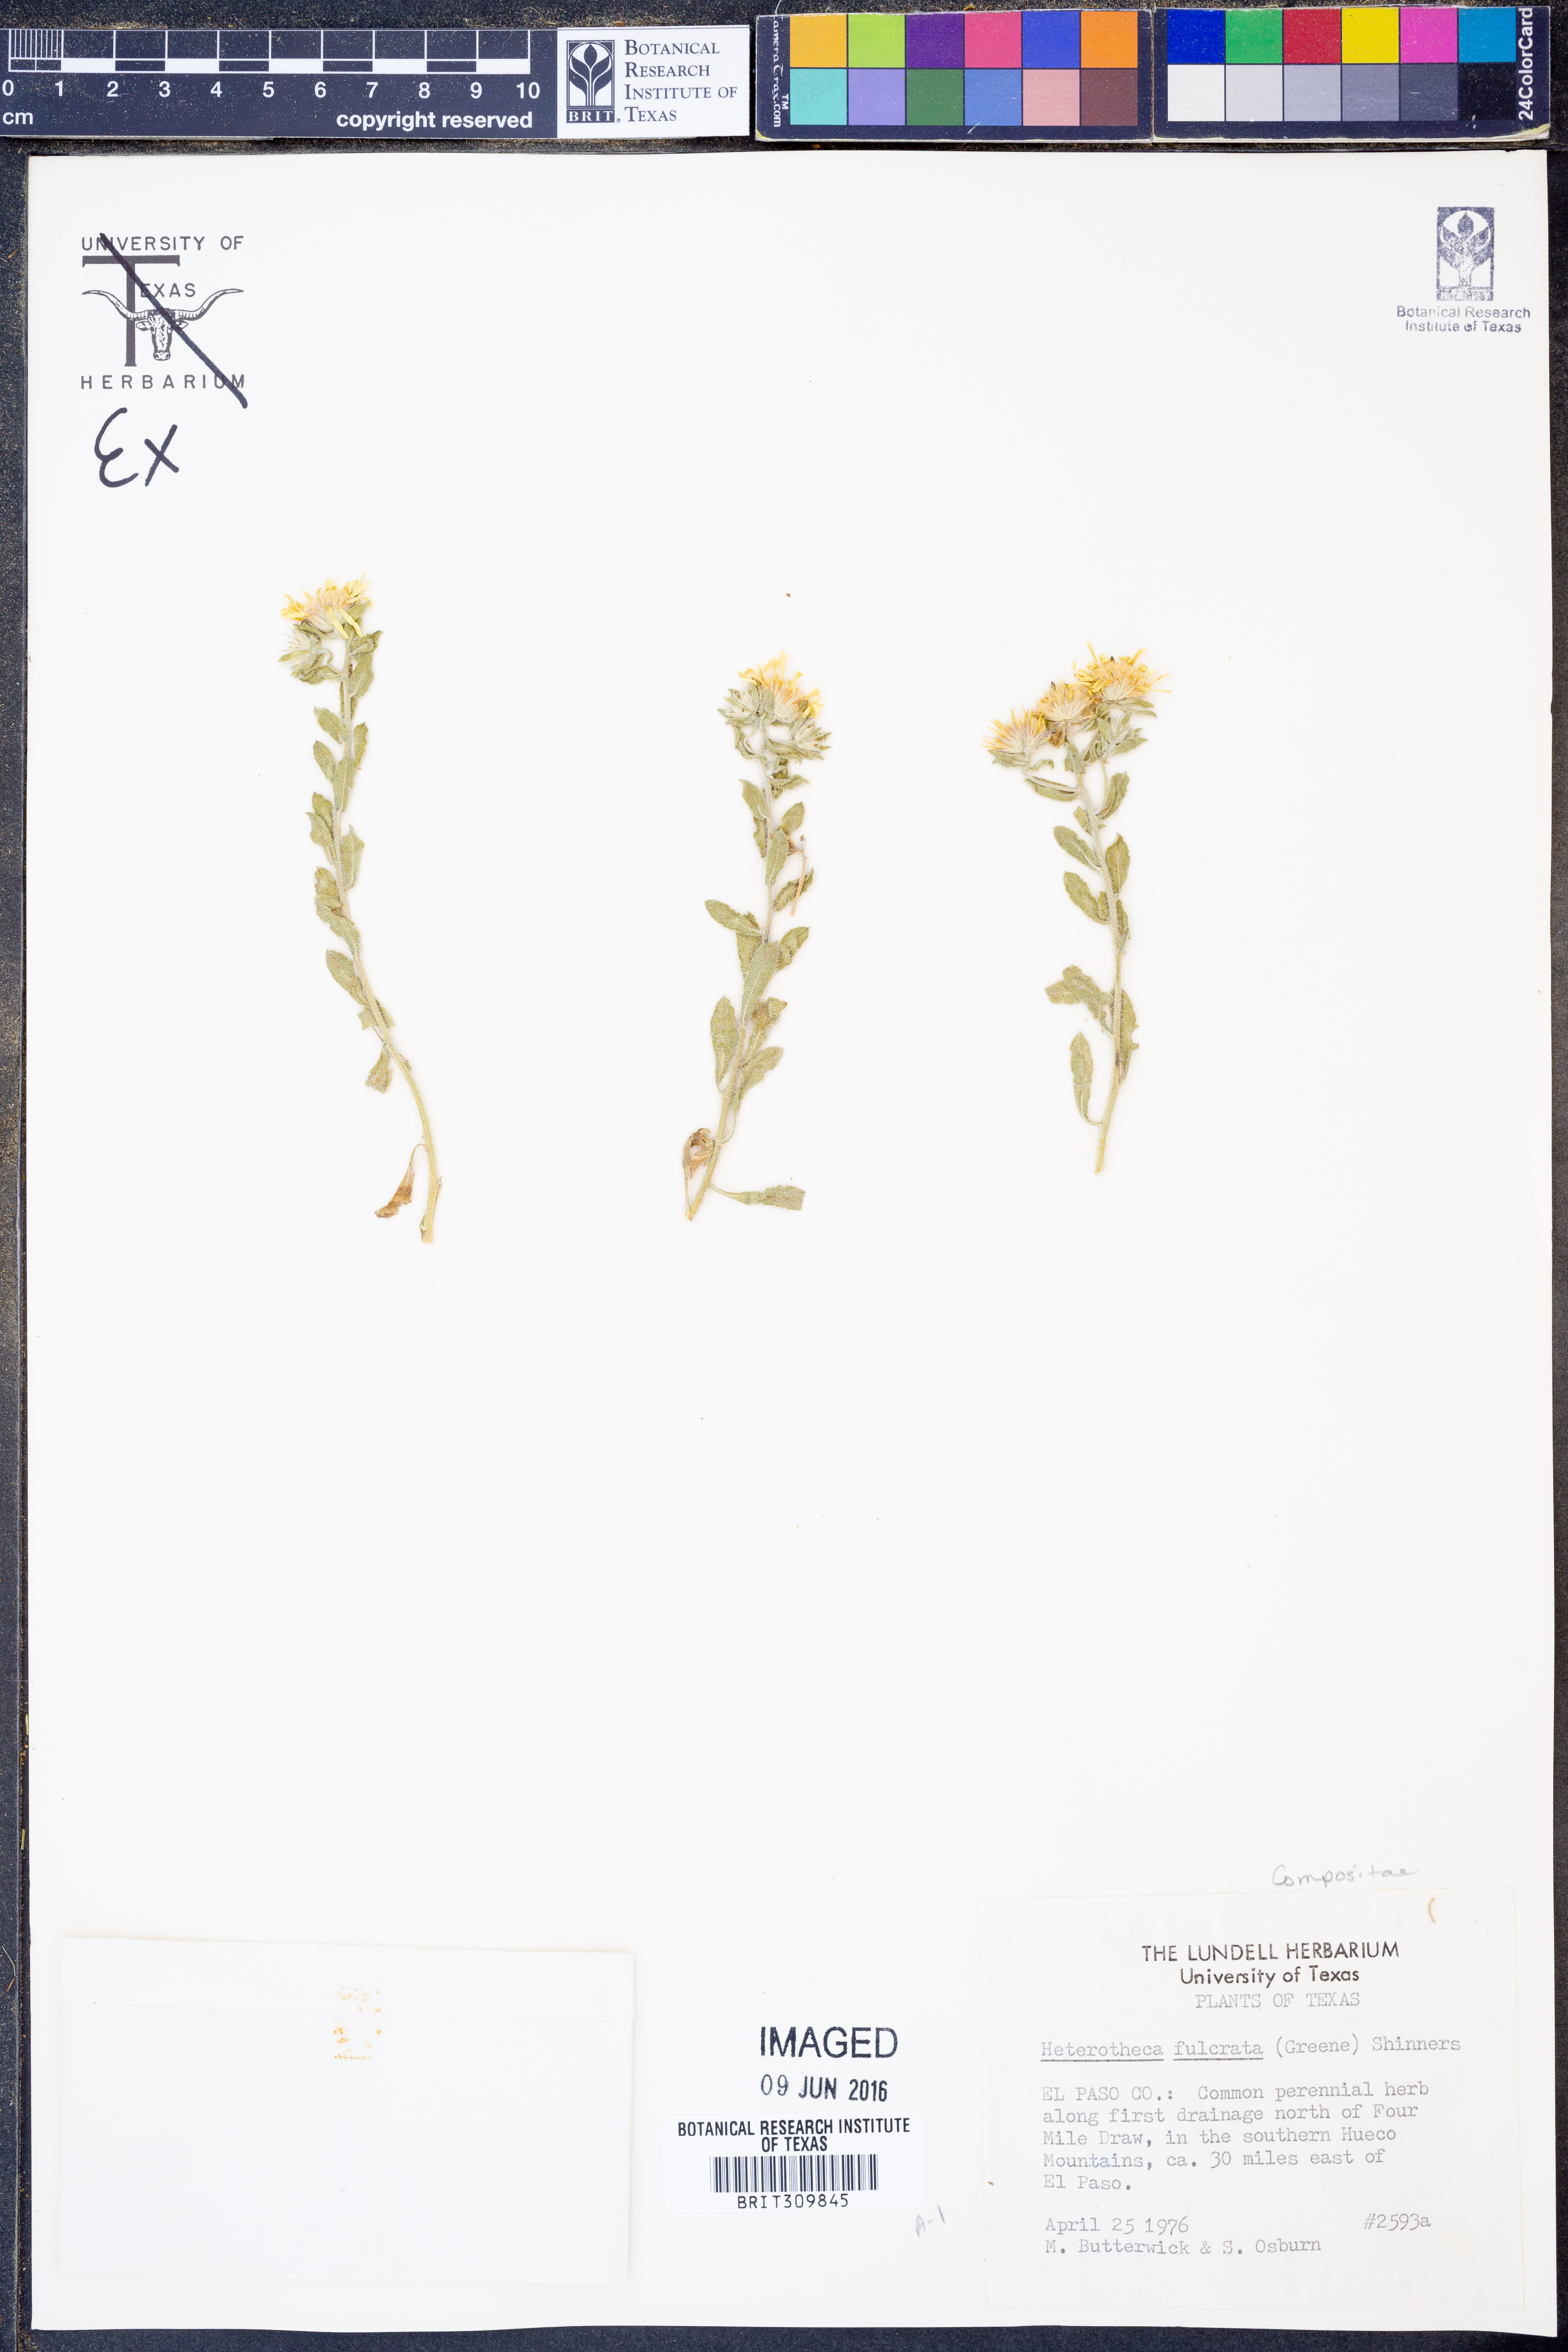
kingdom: Plantae
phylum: Tracheophyta
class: Magnoliopsida
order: Asterales
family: Asteraceae
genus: Heterotheca
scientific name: Heterotheca fulcrata
